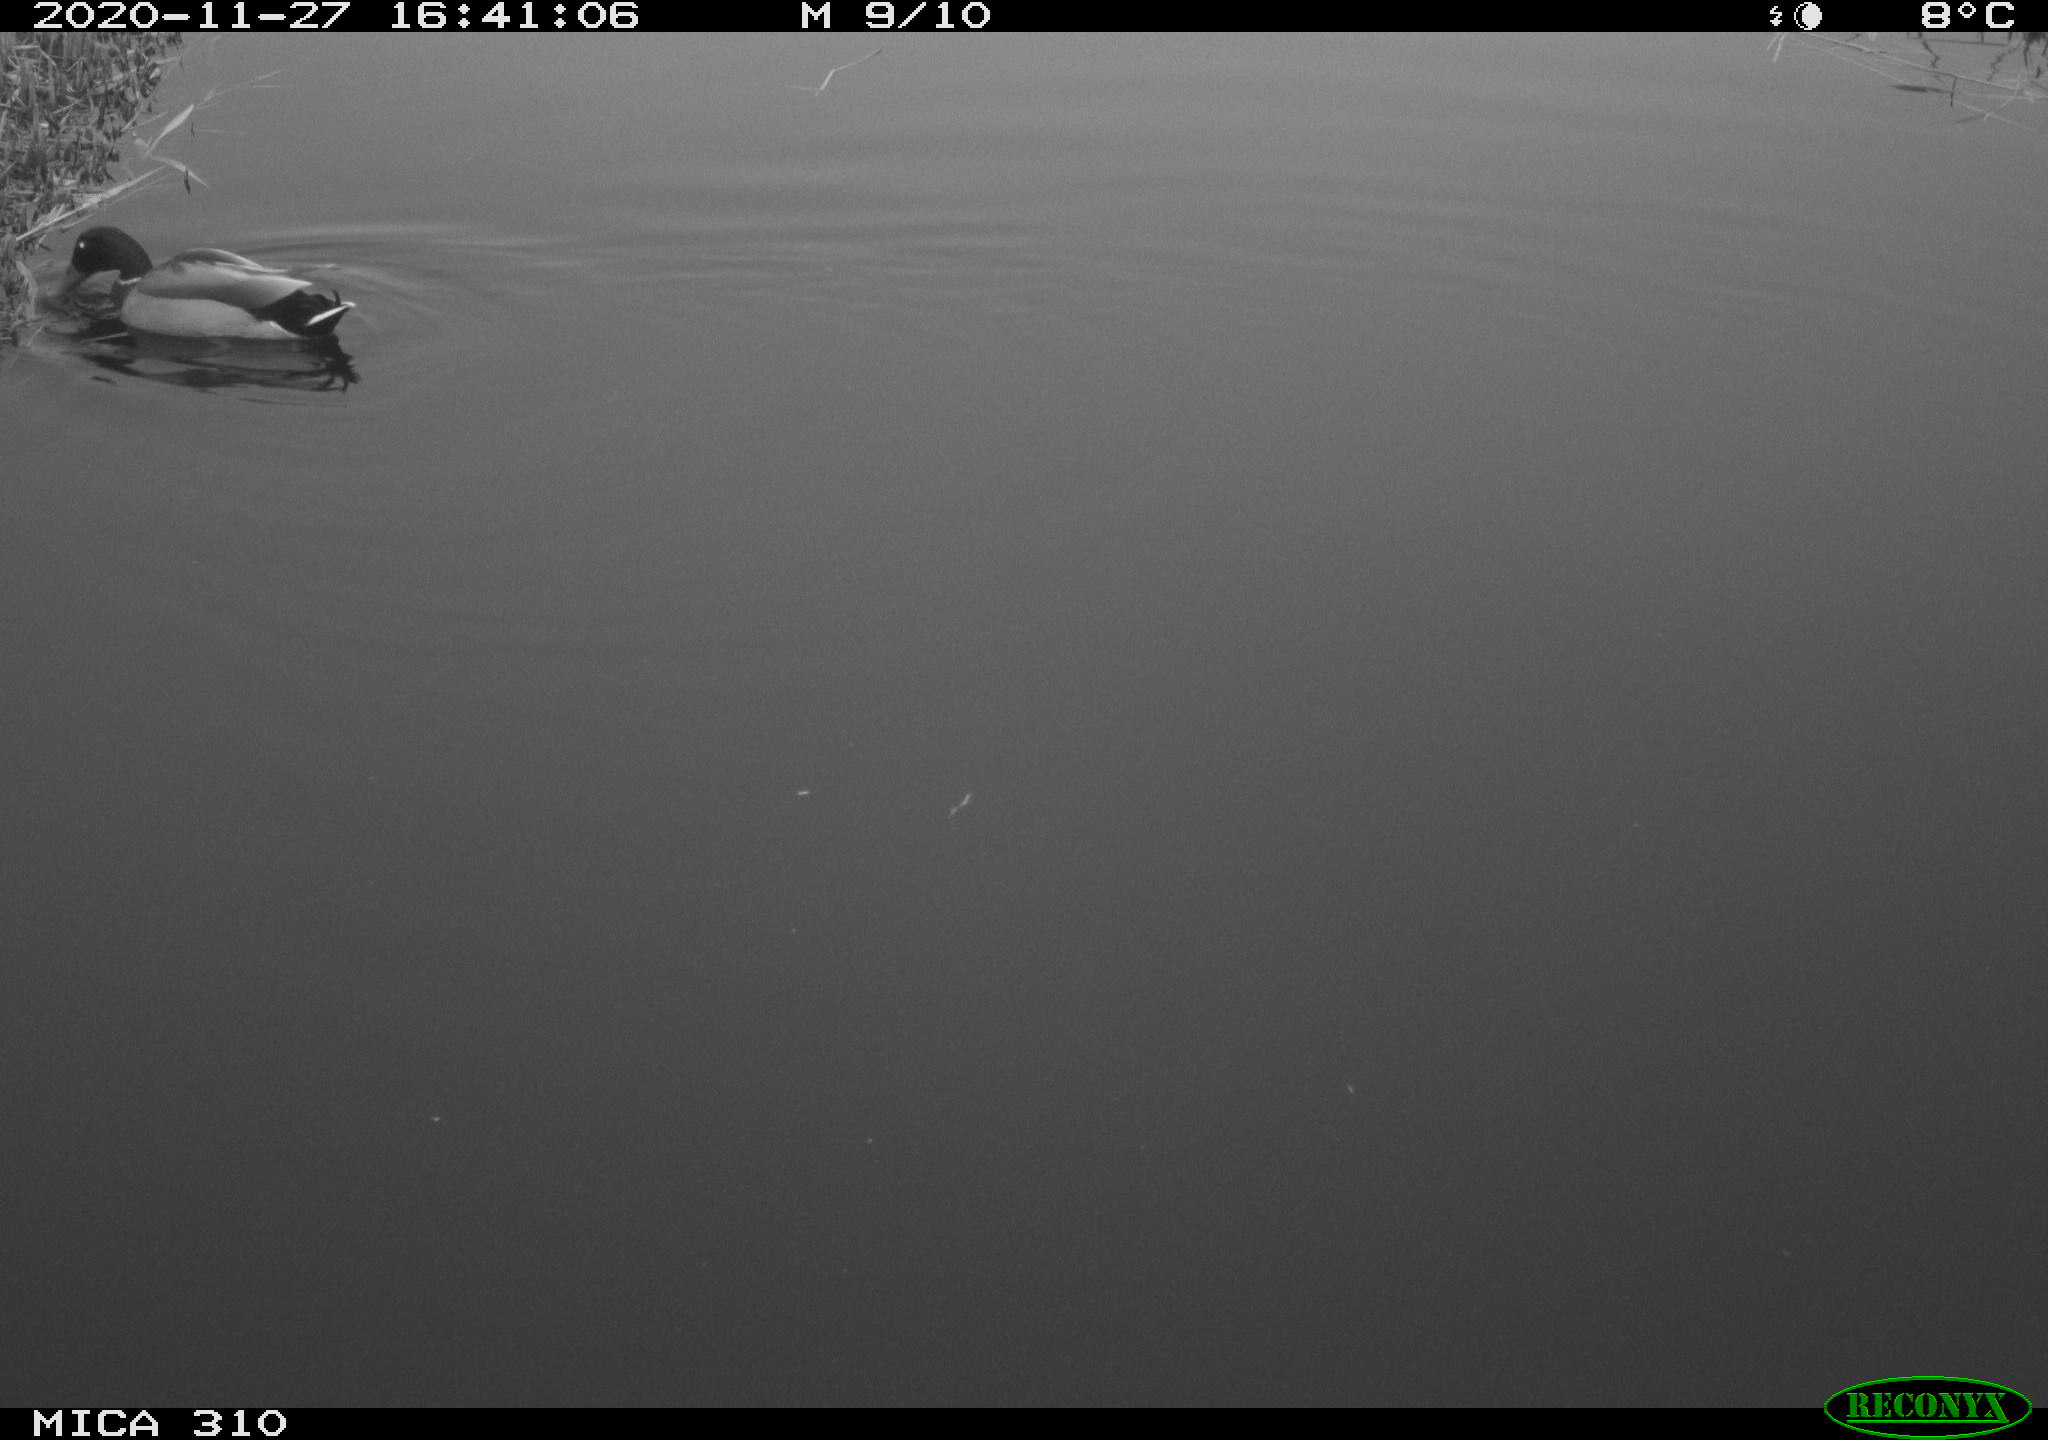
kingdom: Animalia
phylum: Chordata
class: Aves
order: Anseriformes
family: Anatidae
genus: Anas
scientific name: Anas platyrhynchos
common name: Mallard
